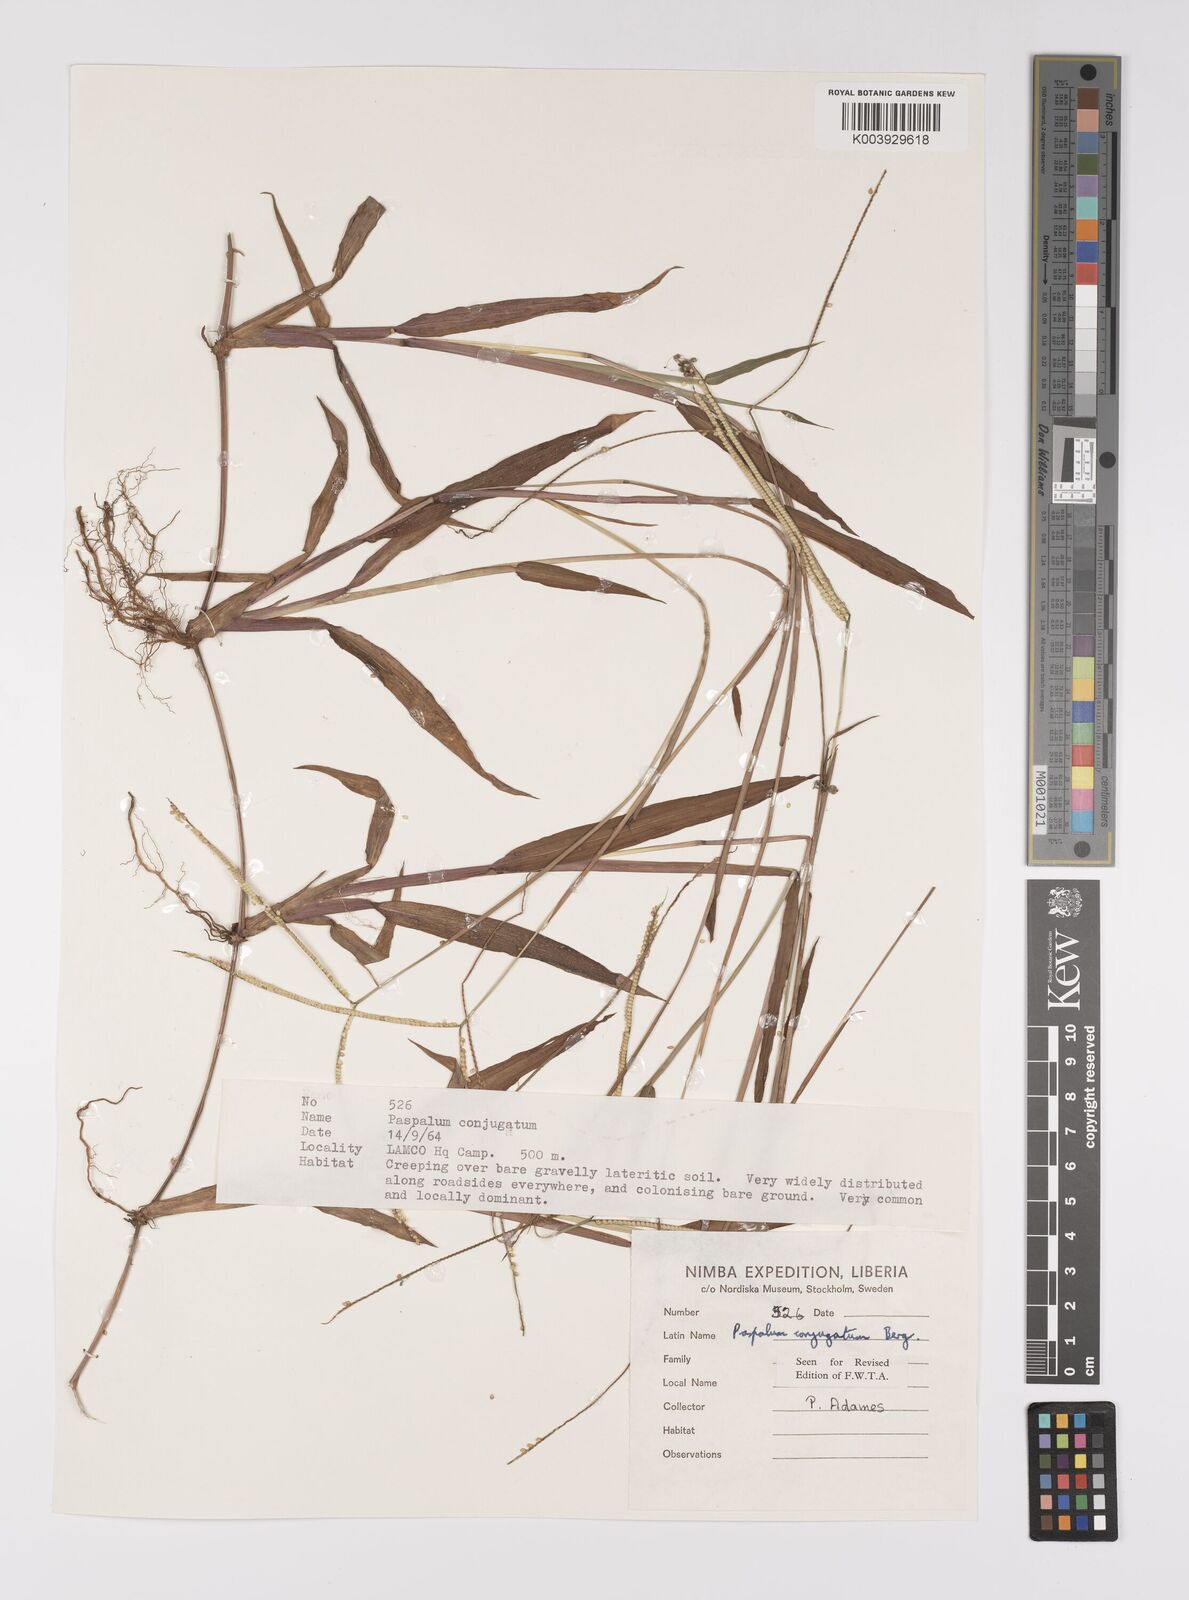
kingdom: Plantae
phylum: Tracheophyta
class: Liliopsida
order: Poales
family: Poaceae
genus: Paspalum
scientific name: Paspalum conjugatum
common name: Hilograss
